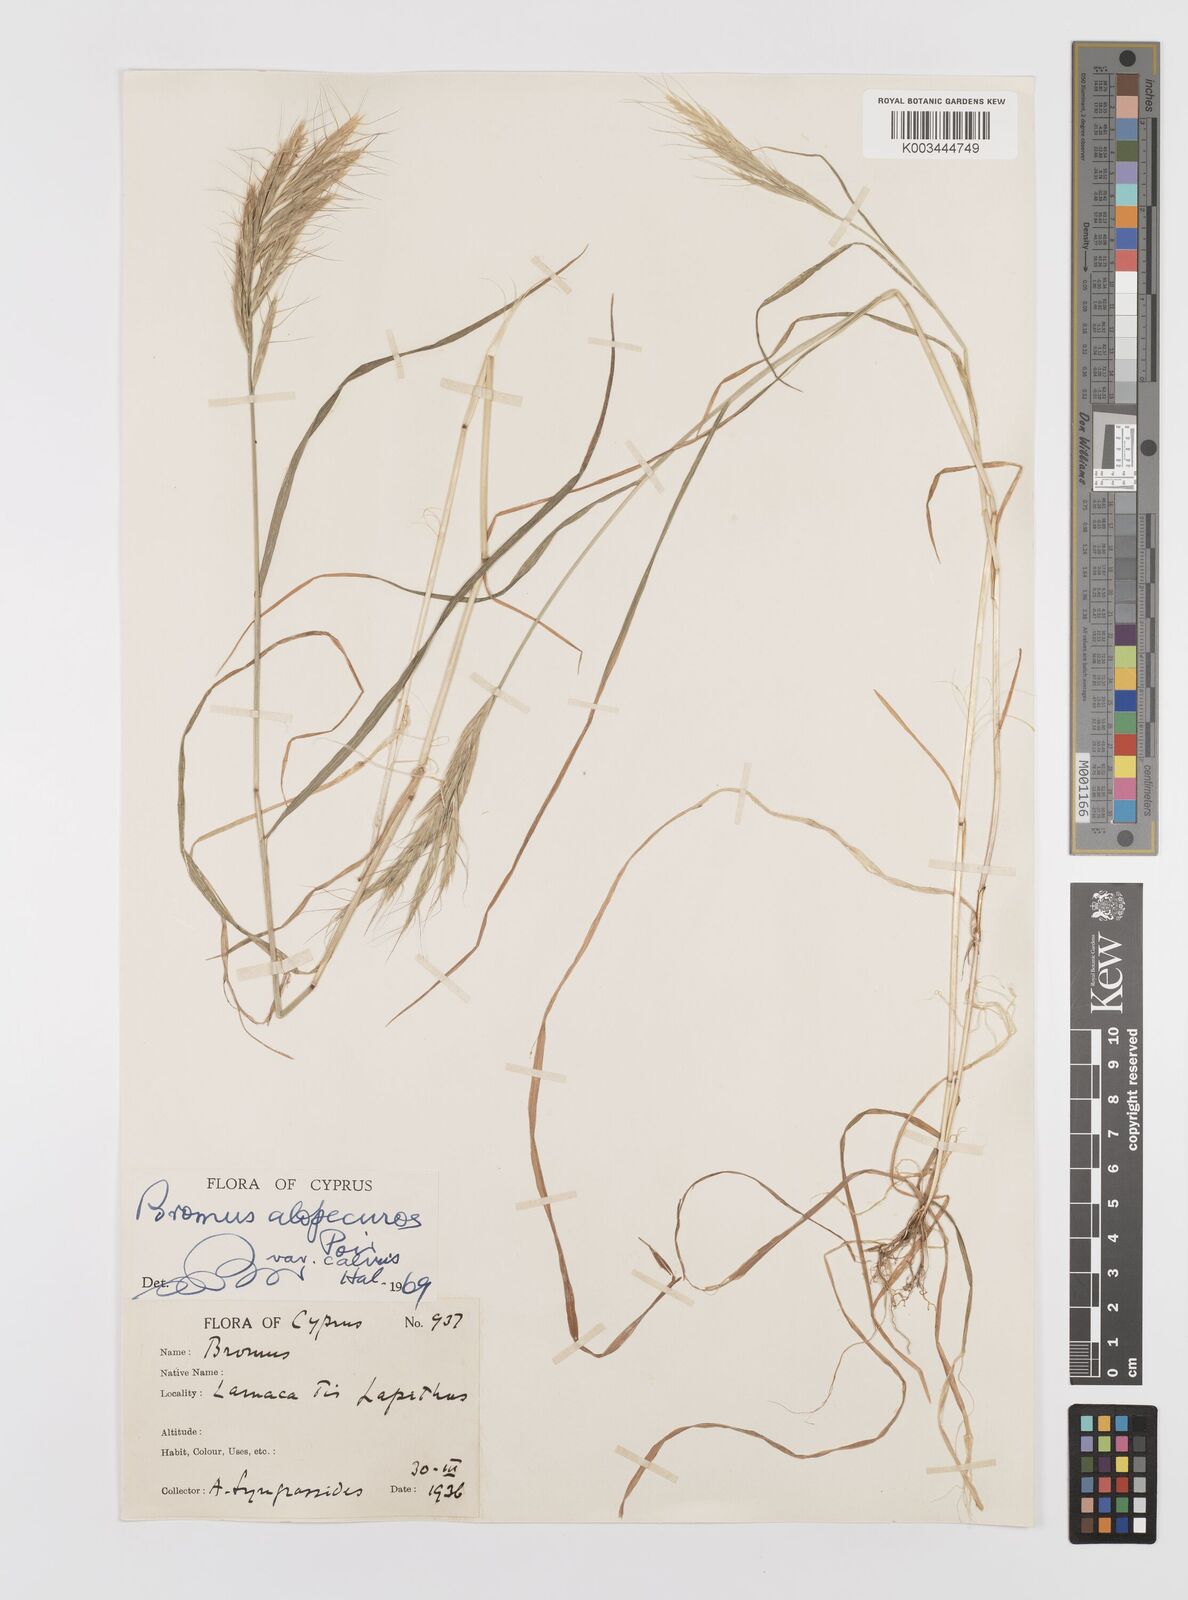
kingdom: Plantae
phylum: Tracheophyta
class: Liliopsida
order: Poales
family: Poaceae
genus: Bromus
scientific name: Bromus alopecuros
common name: Weedy brome
